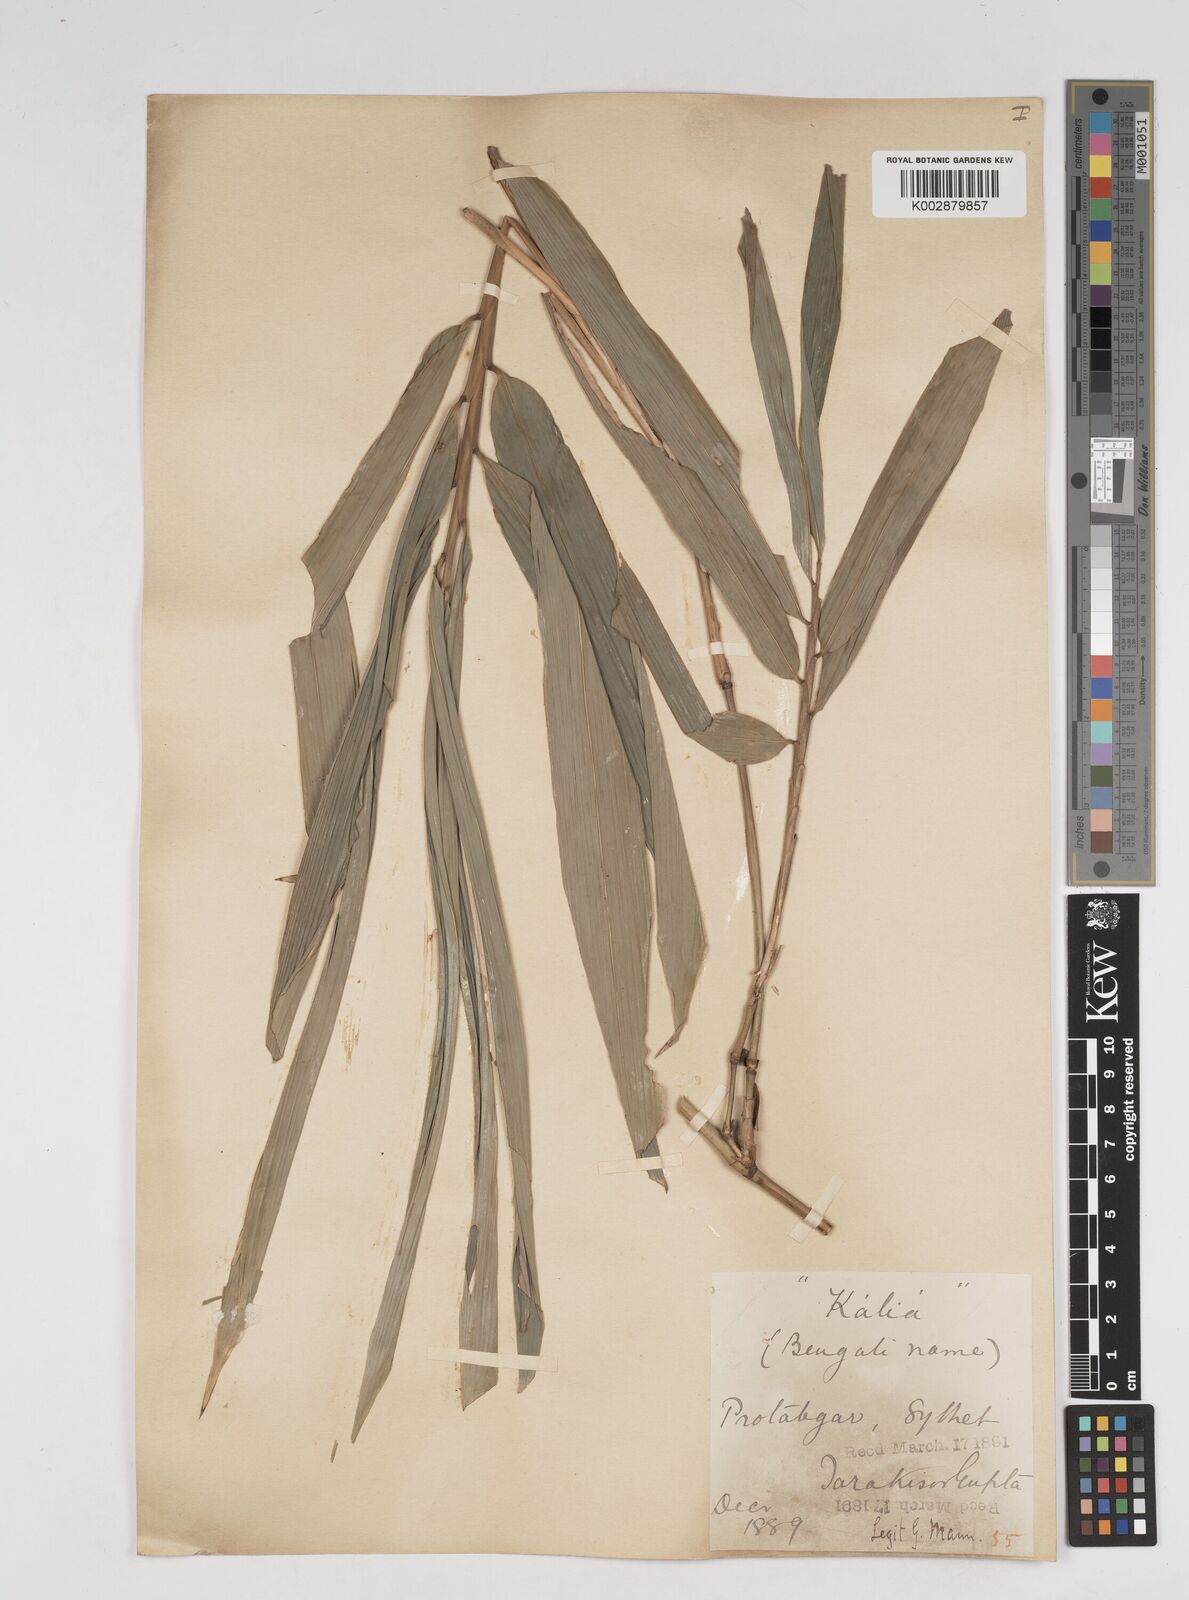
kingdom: Plantae
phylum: Tracheophyta
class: Liliopsida
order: Poales
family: Poaceae
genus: Gigantochloa
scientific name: Gigantochloa
